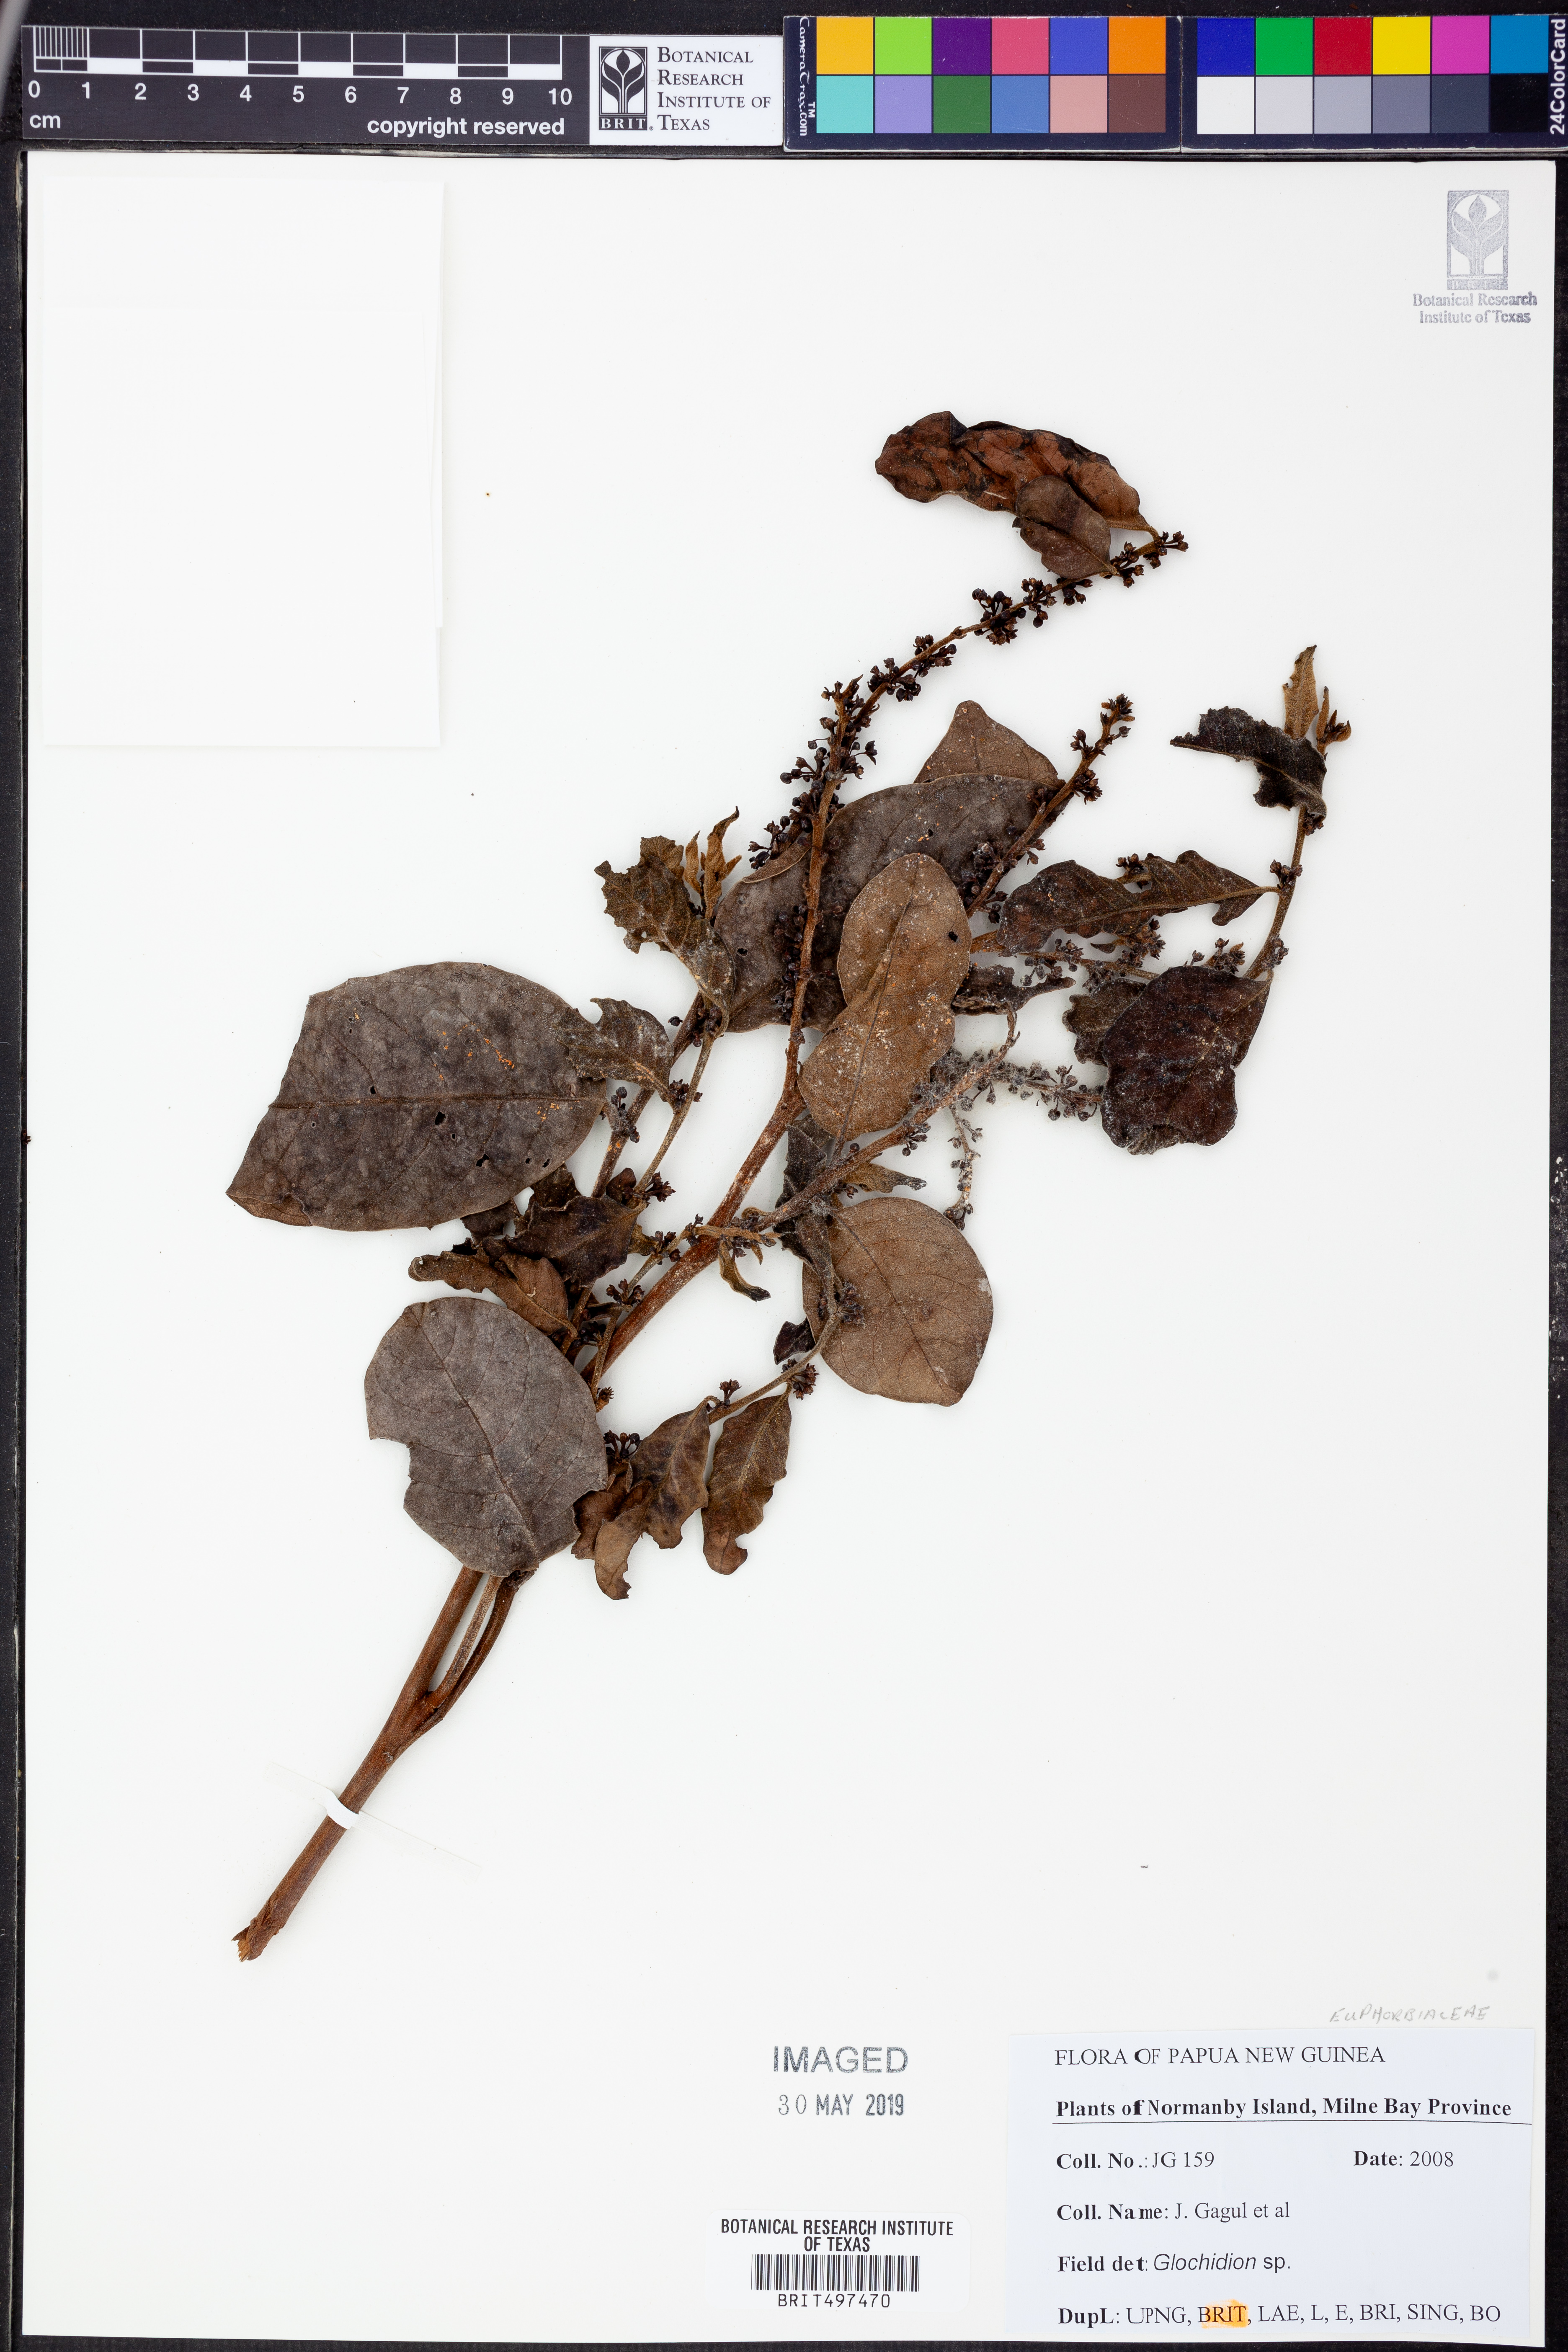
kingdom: Plantae
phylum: Tracheophyta
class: Magnoliopsida
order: Malpighiales
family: Phyllanthaceae
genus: Glochidion
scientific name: Glochidion
